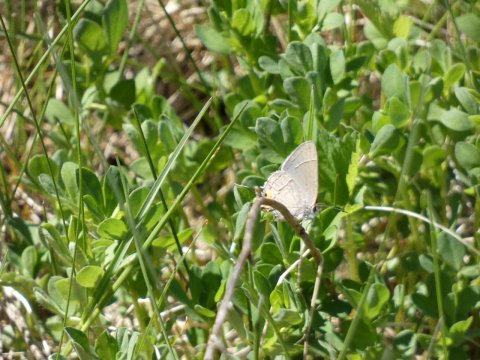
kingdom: Animalia
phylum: Arthropoda
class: Insecta
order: Lepidoptera
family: Lycaenidae
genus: Strymon
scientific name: Strymon melinus
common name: Gray Hairstreak
